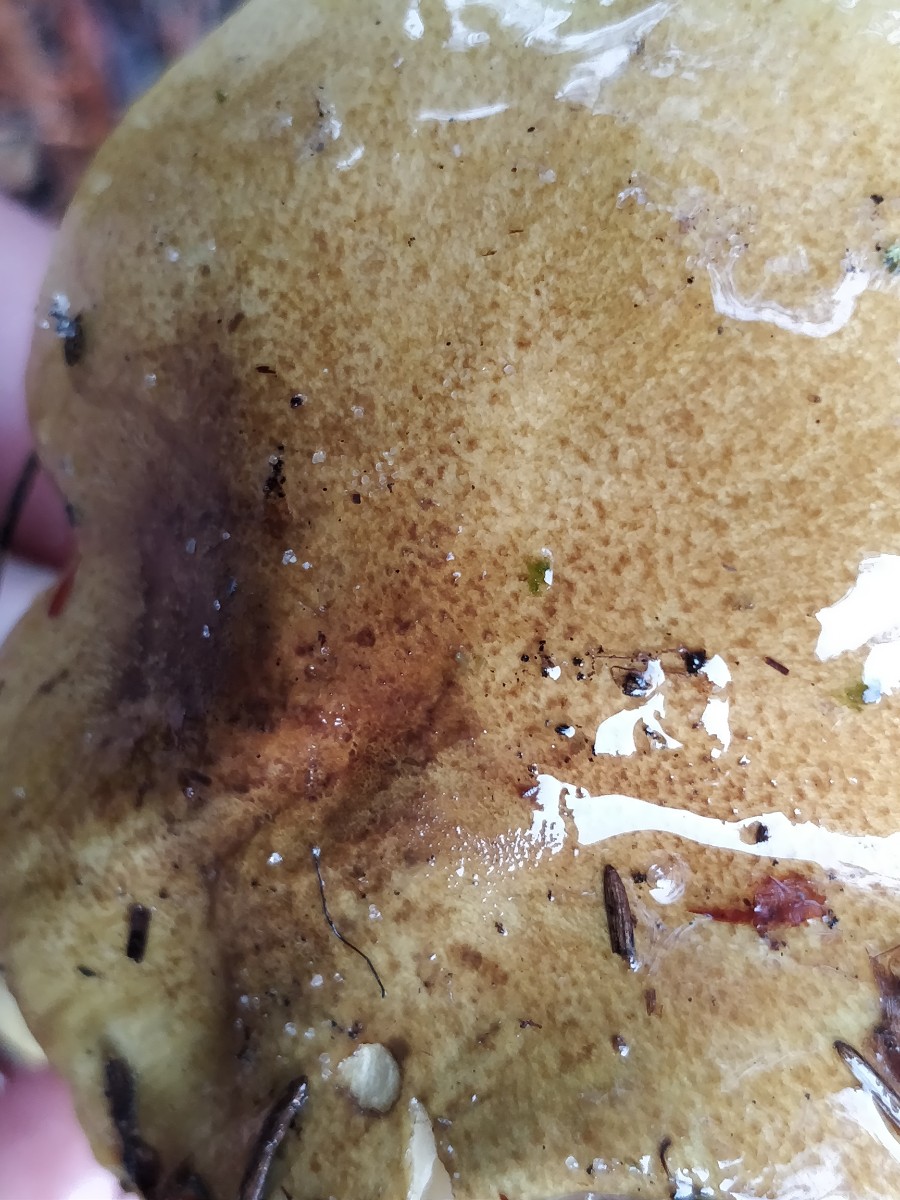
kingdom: Fungi
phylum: Basidiomycota
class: Agaricomycetes
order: Agaricales
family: Tricholomataceae
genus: Tricholoma
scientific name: Tricholoma sulphureum
